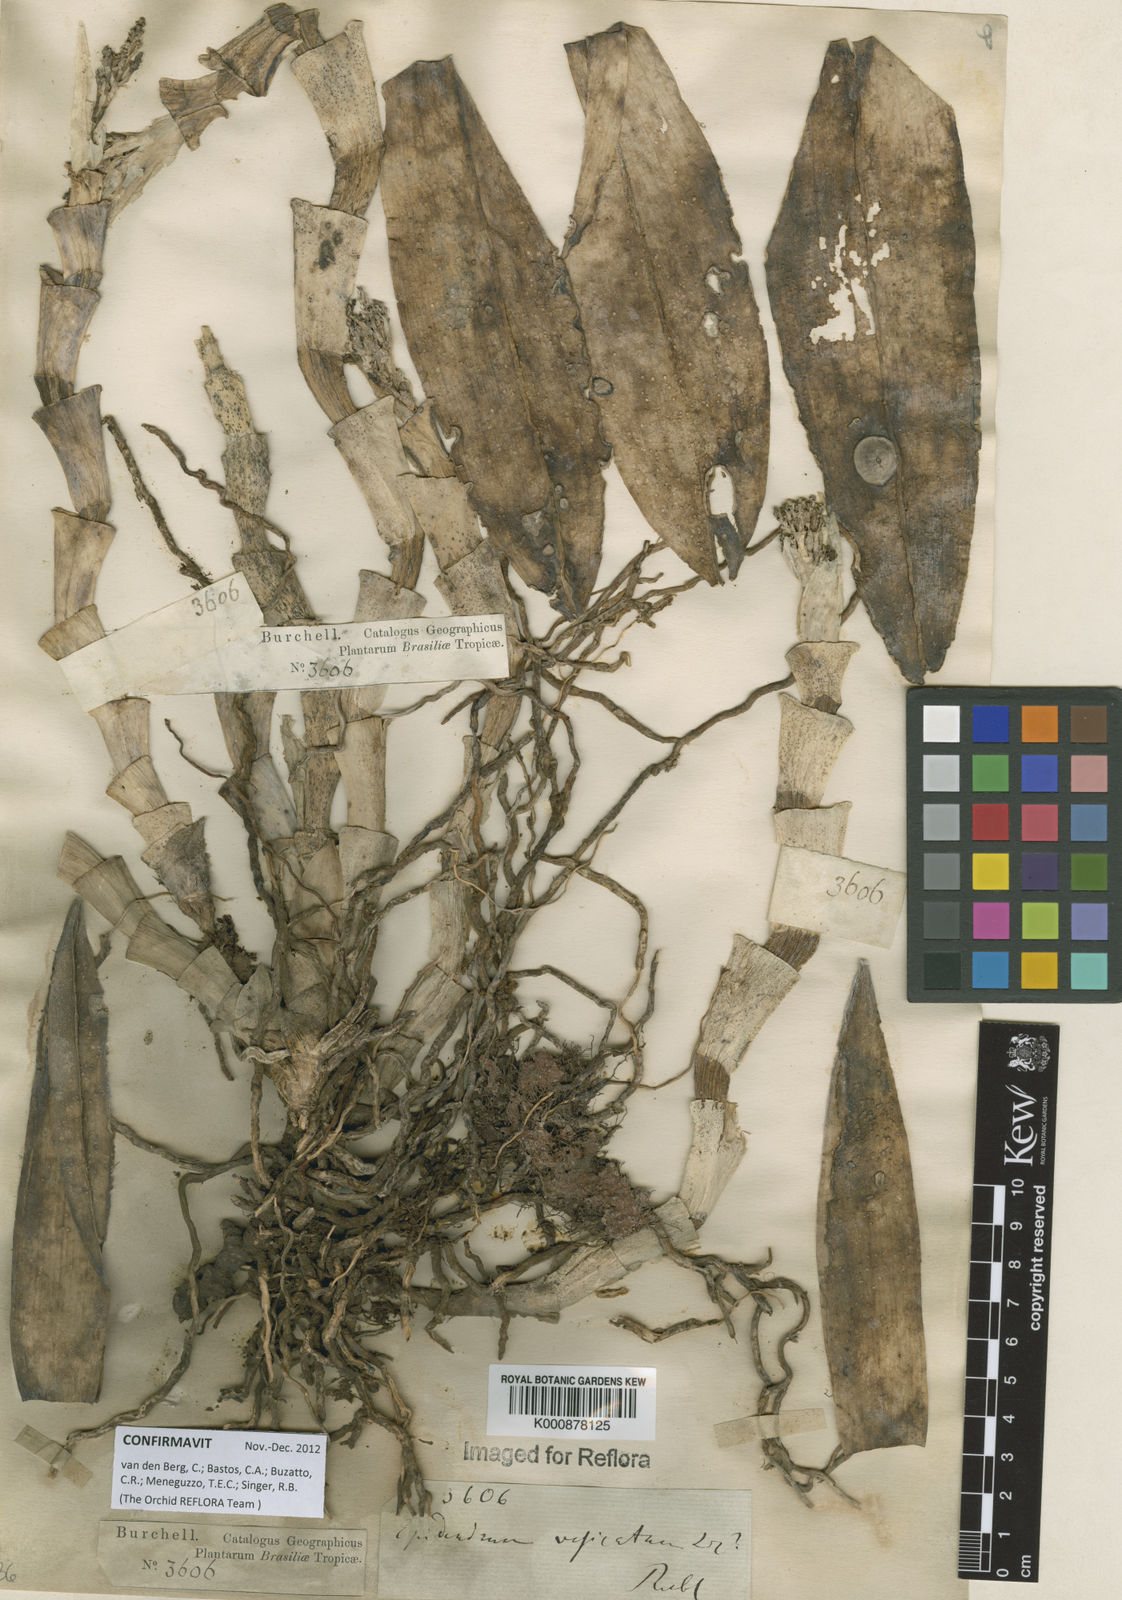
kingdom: Plantae
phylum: Tracheophyta
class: Liliopsida
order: Asparagales
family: Orchidaceae
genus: Epidendrum
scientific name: Epidendrum vesicatum
